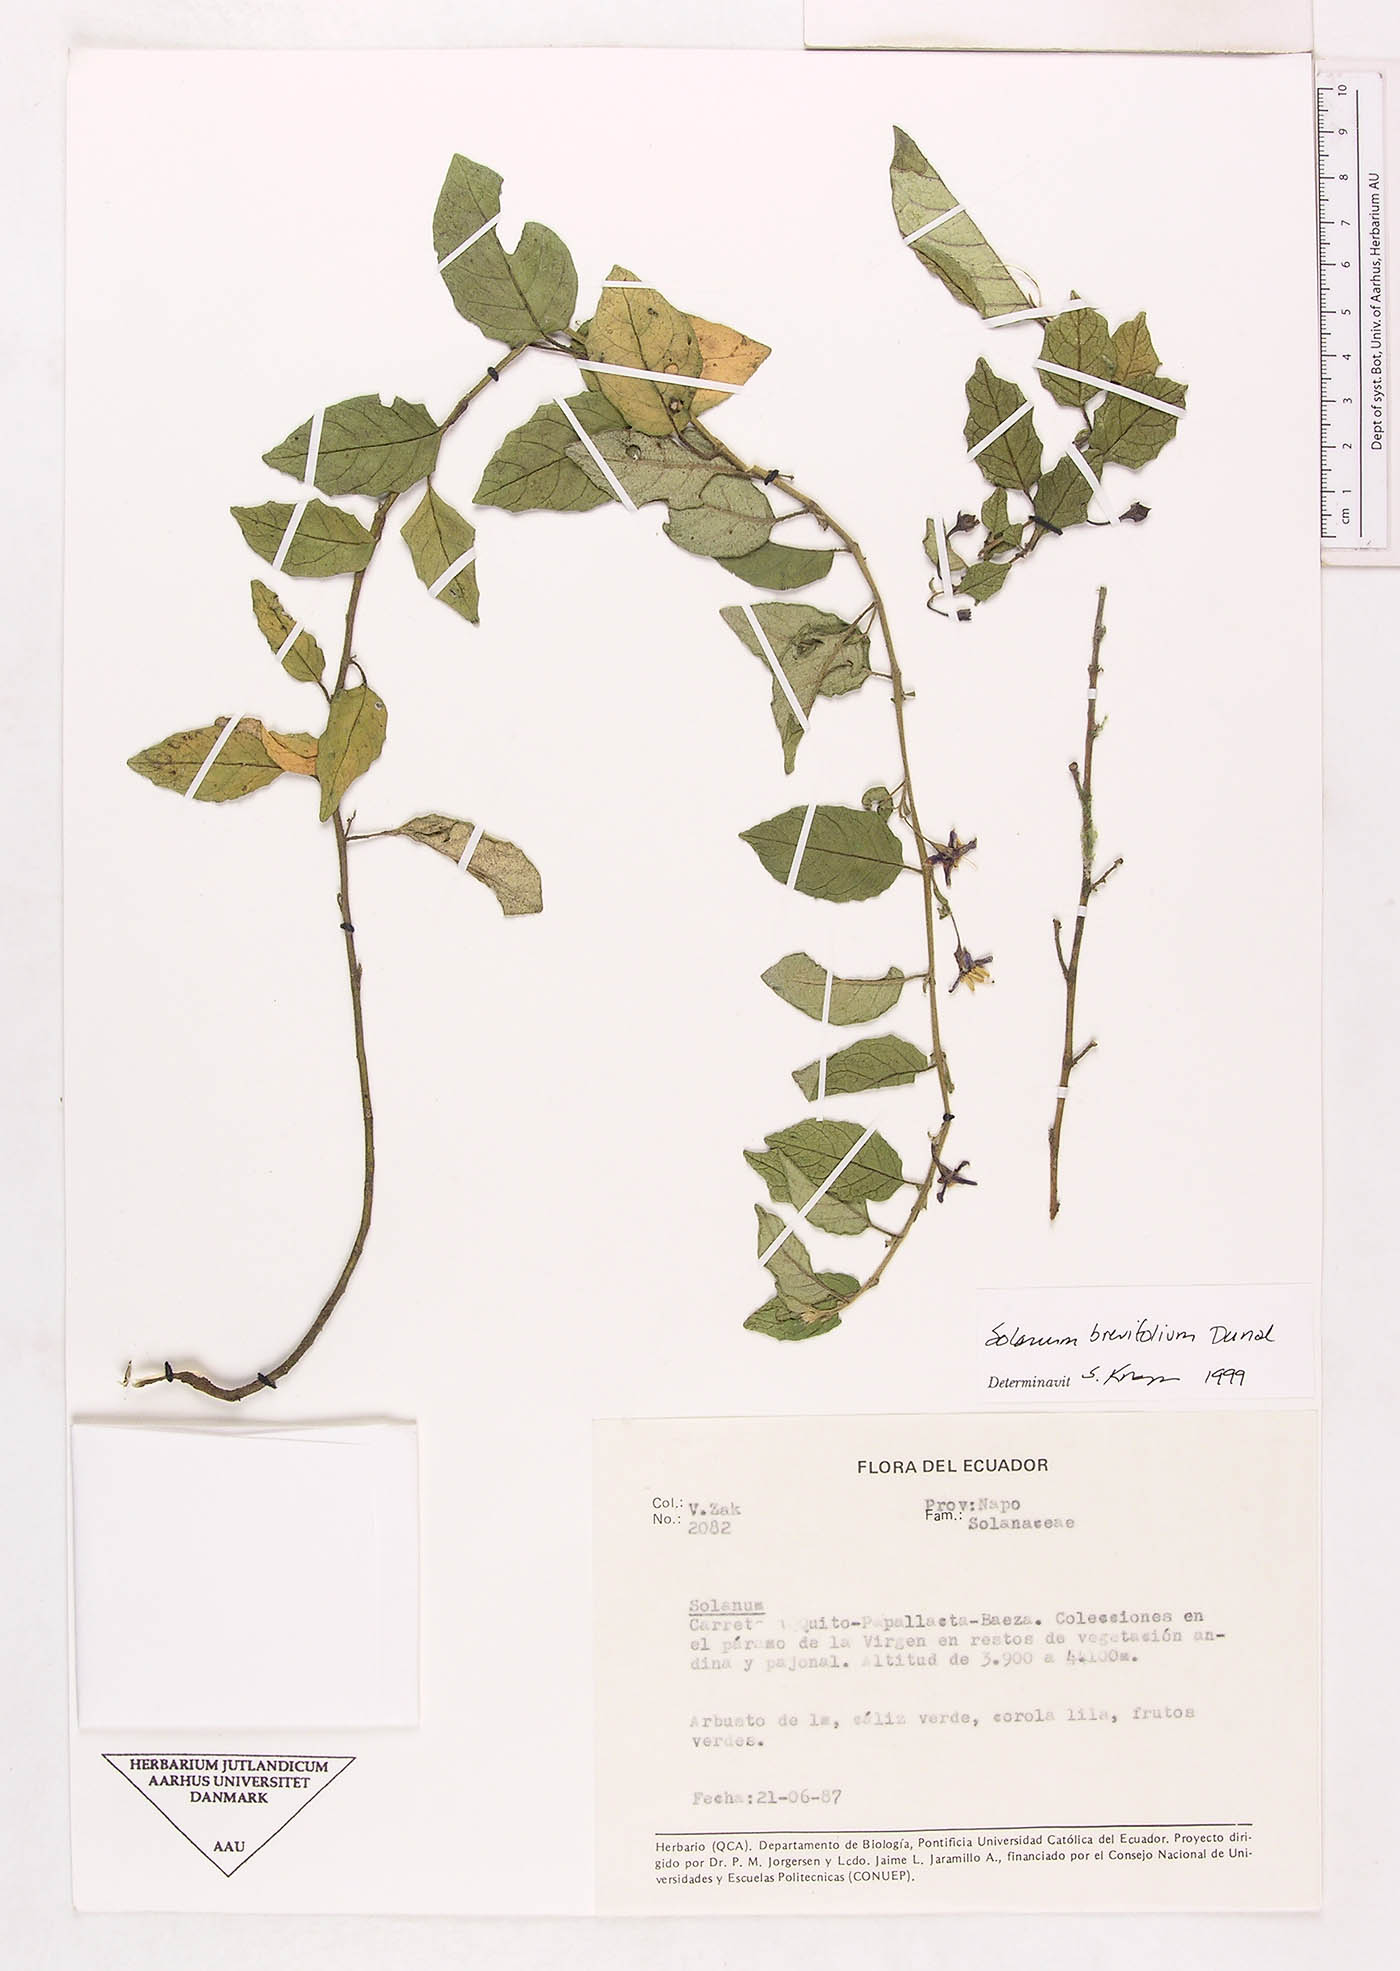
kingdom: Plantae
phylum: Tracheophyta
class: Magnoliopsida
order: Solanales
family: Solanaceae
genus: Solanum
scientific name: Solanum brevifolium
